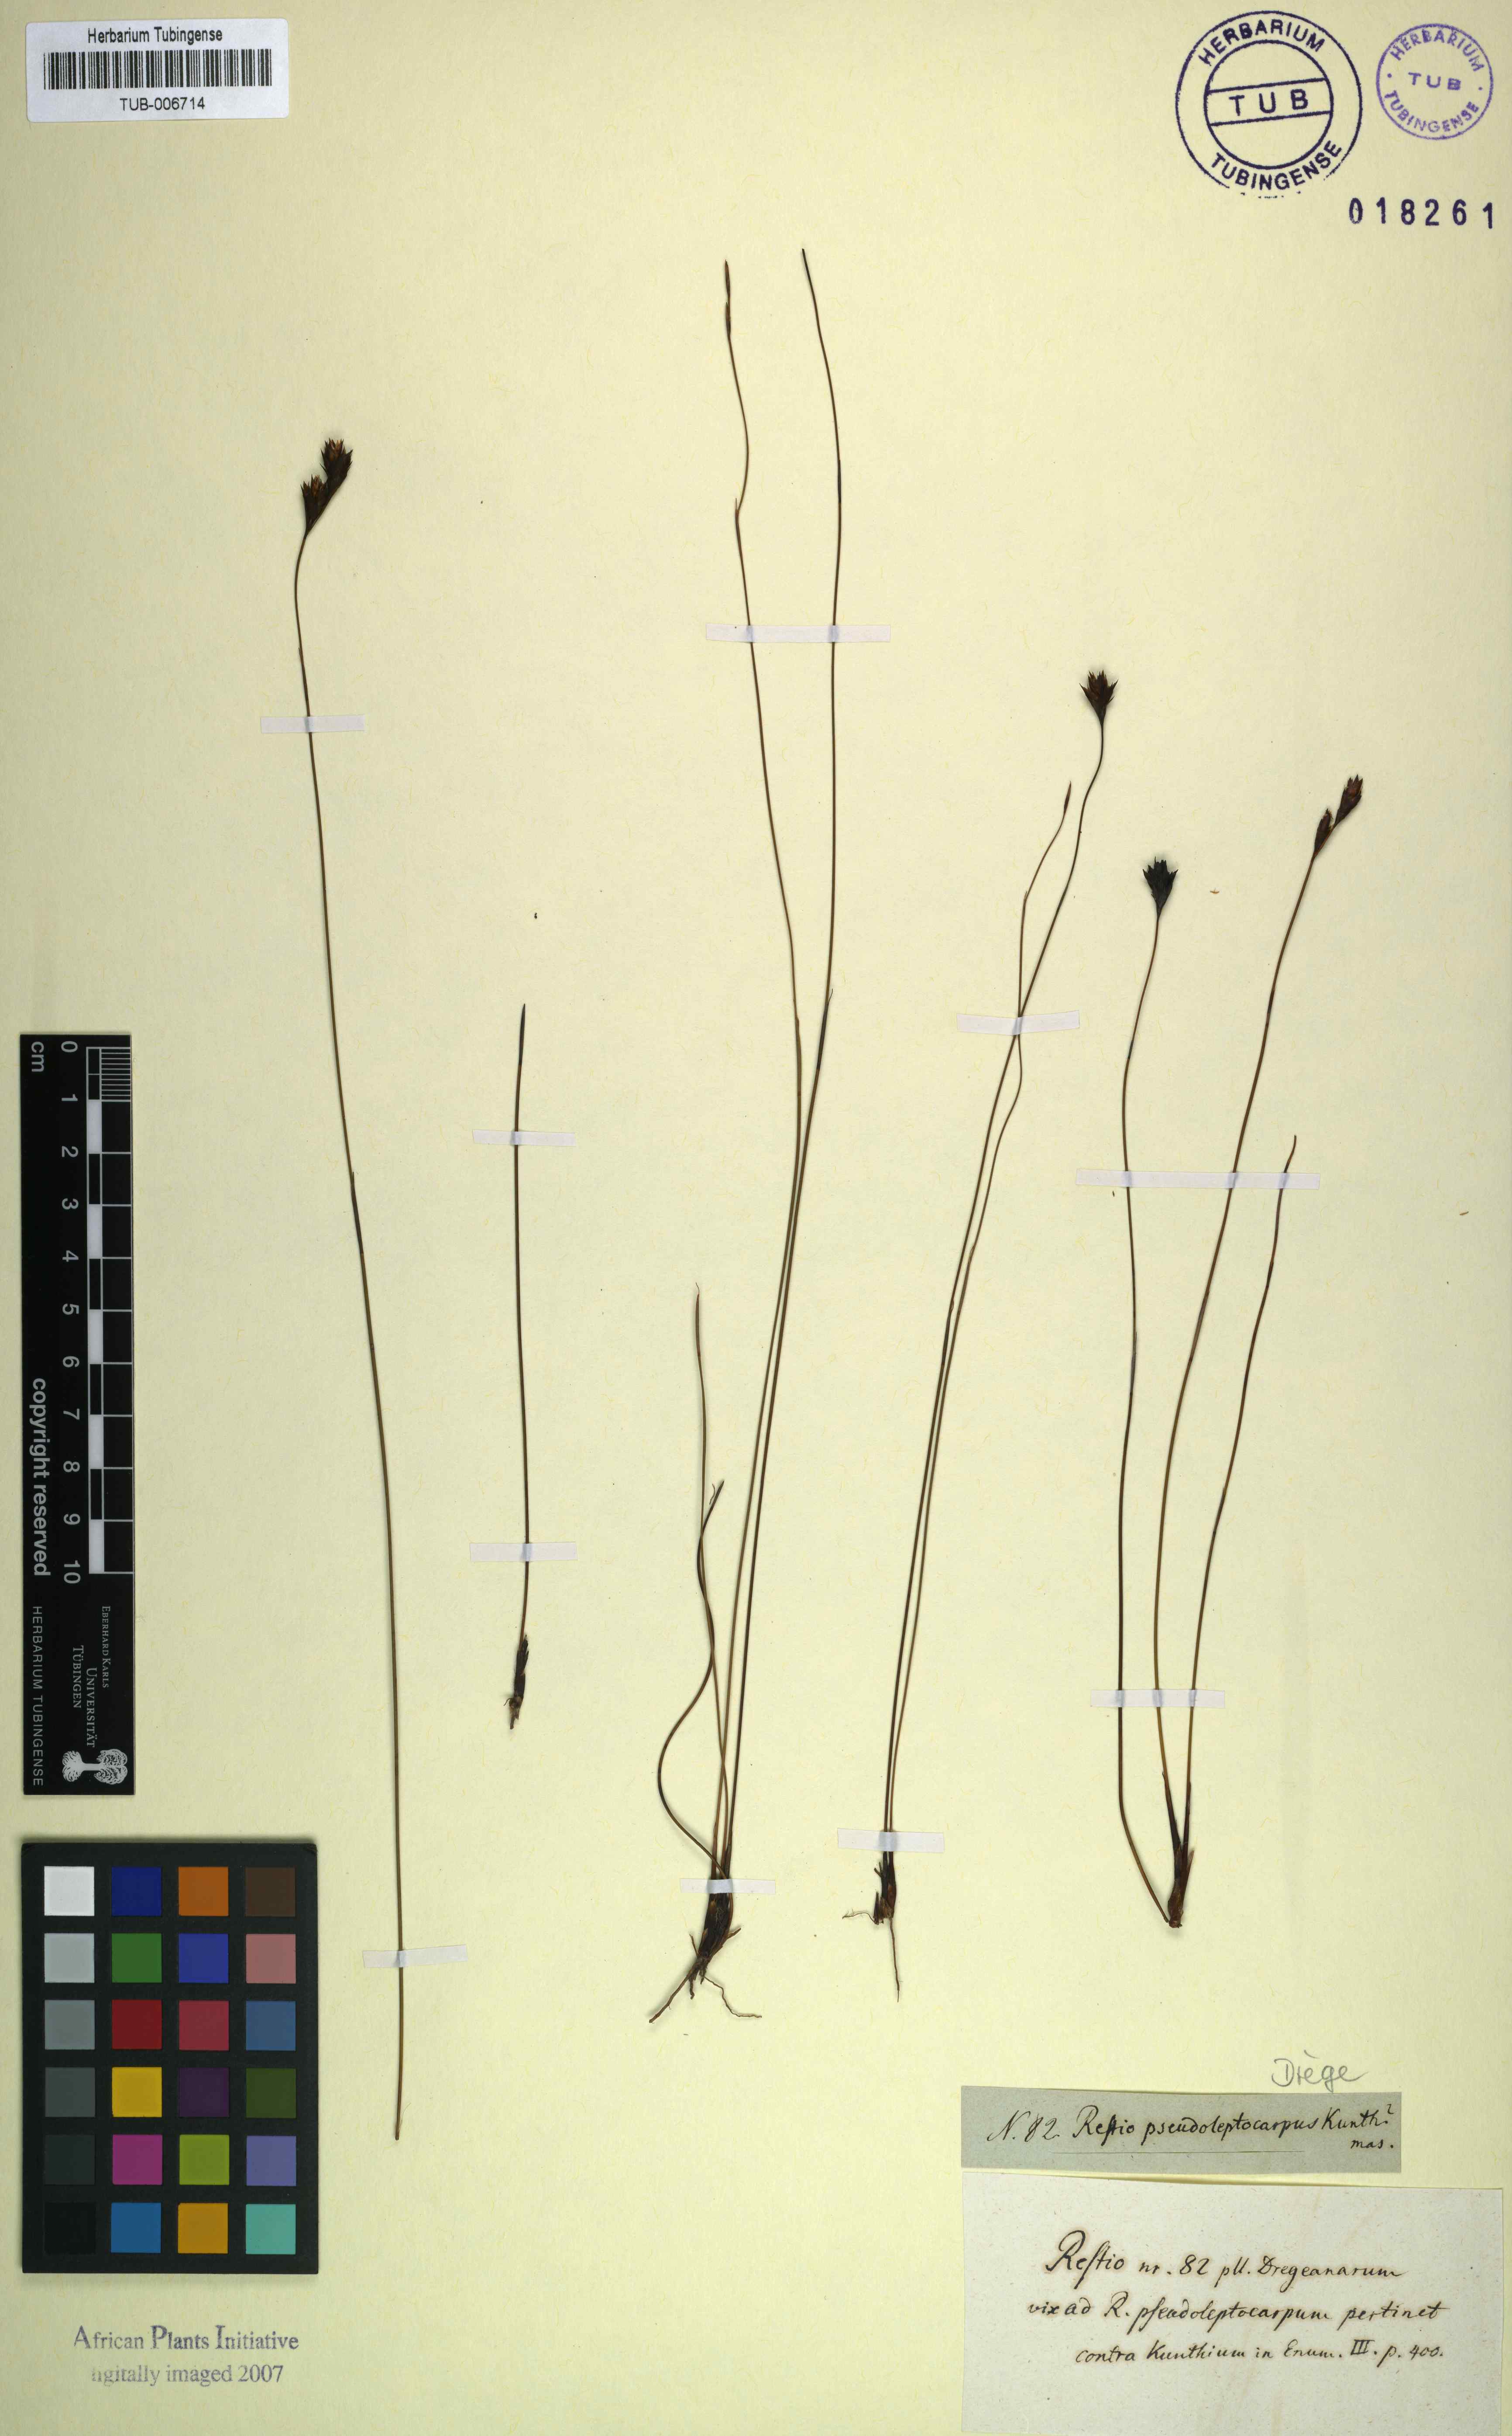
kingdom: Plantae
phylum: Tracheophyta
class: Liliopsida
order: Poales
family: Restionaceae
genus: Restio
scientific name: Restio bifidus
